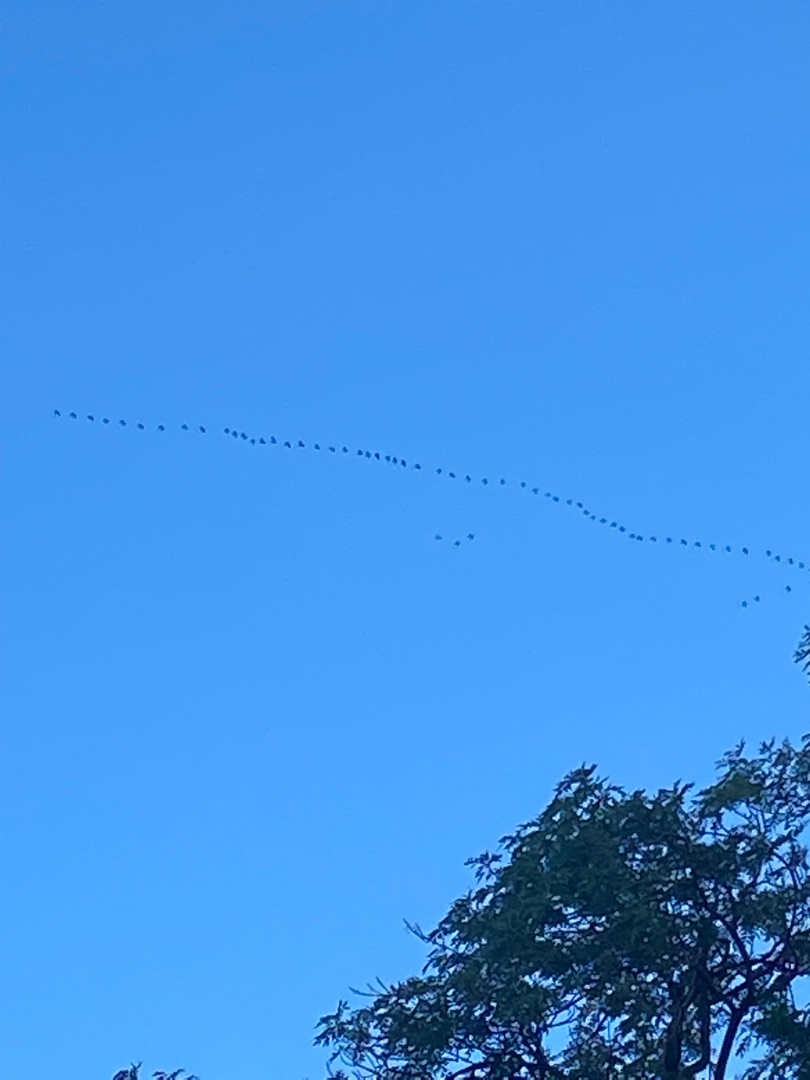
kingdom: Animalia
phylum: Chordata
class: Aves
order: Gruiformes
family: Gruidae
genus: Grus
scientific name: Grus grus
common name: Trane
